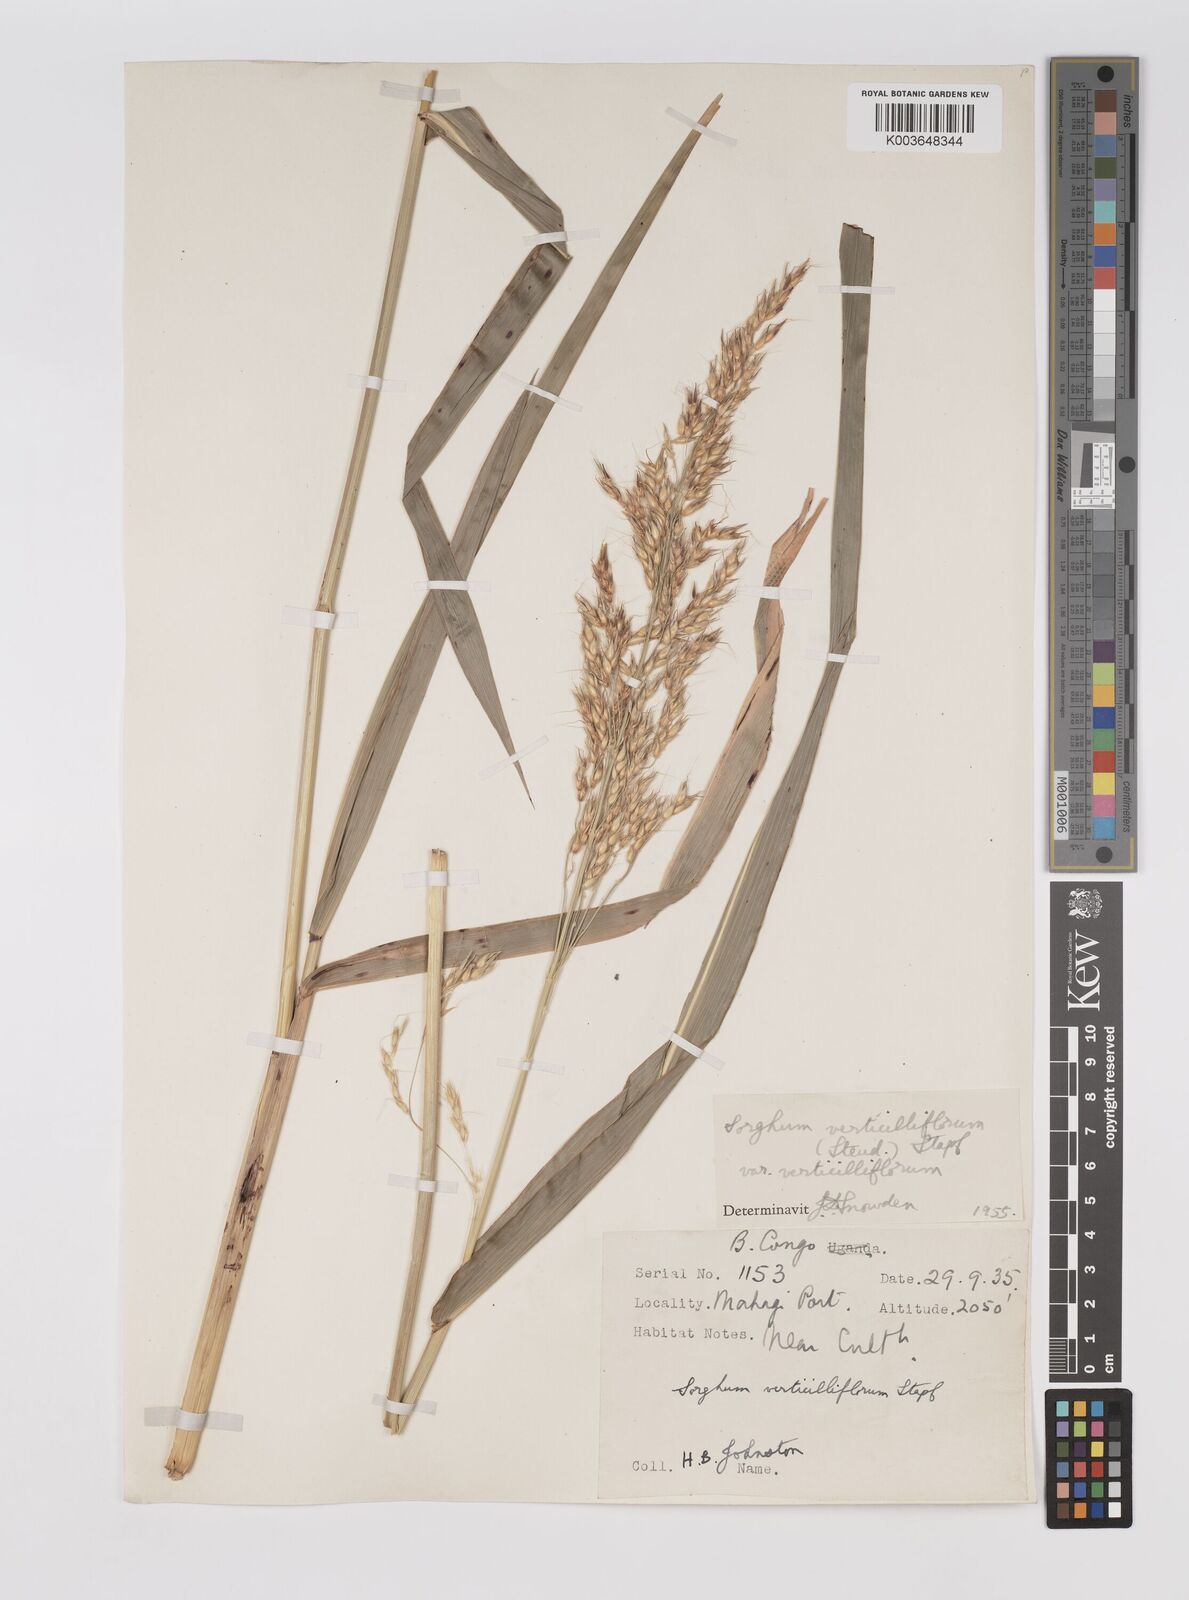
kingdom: Plantae
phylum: Tracheophyta
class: Liliopsida
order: Poales
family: Poaceae
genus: Sorghum
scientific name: Sorghum arundinaceum
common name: Sorghum
